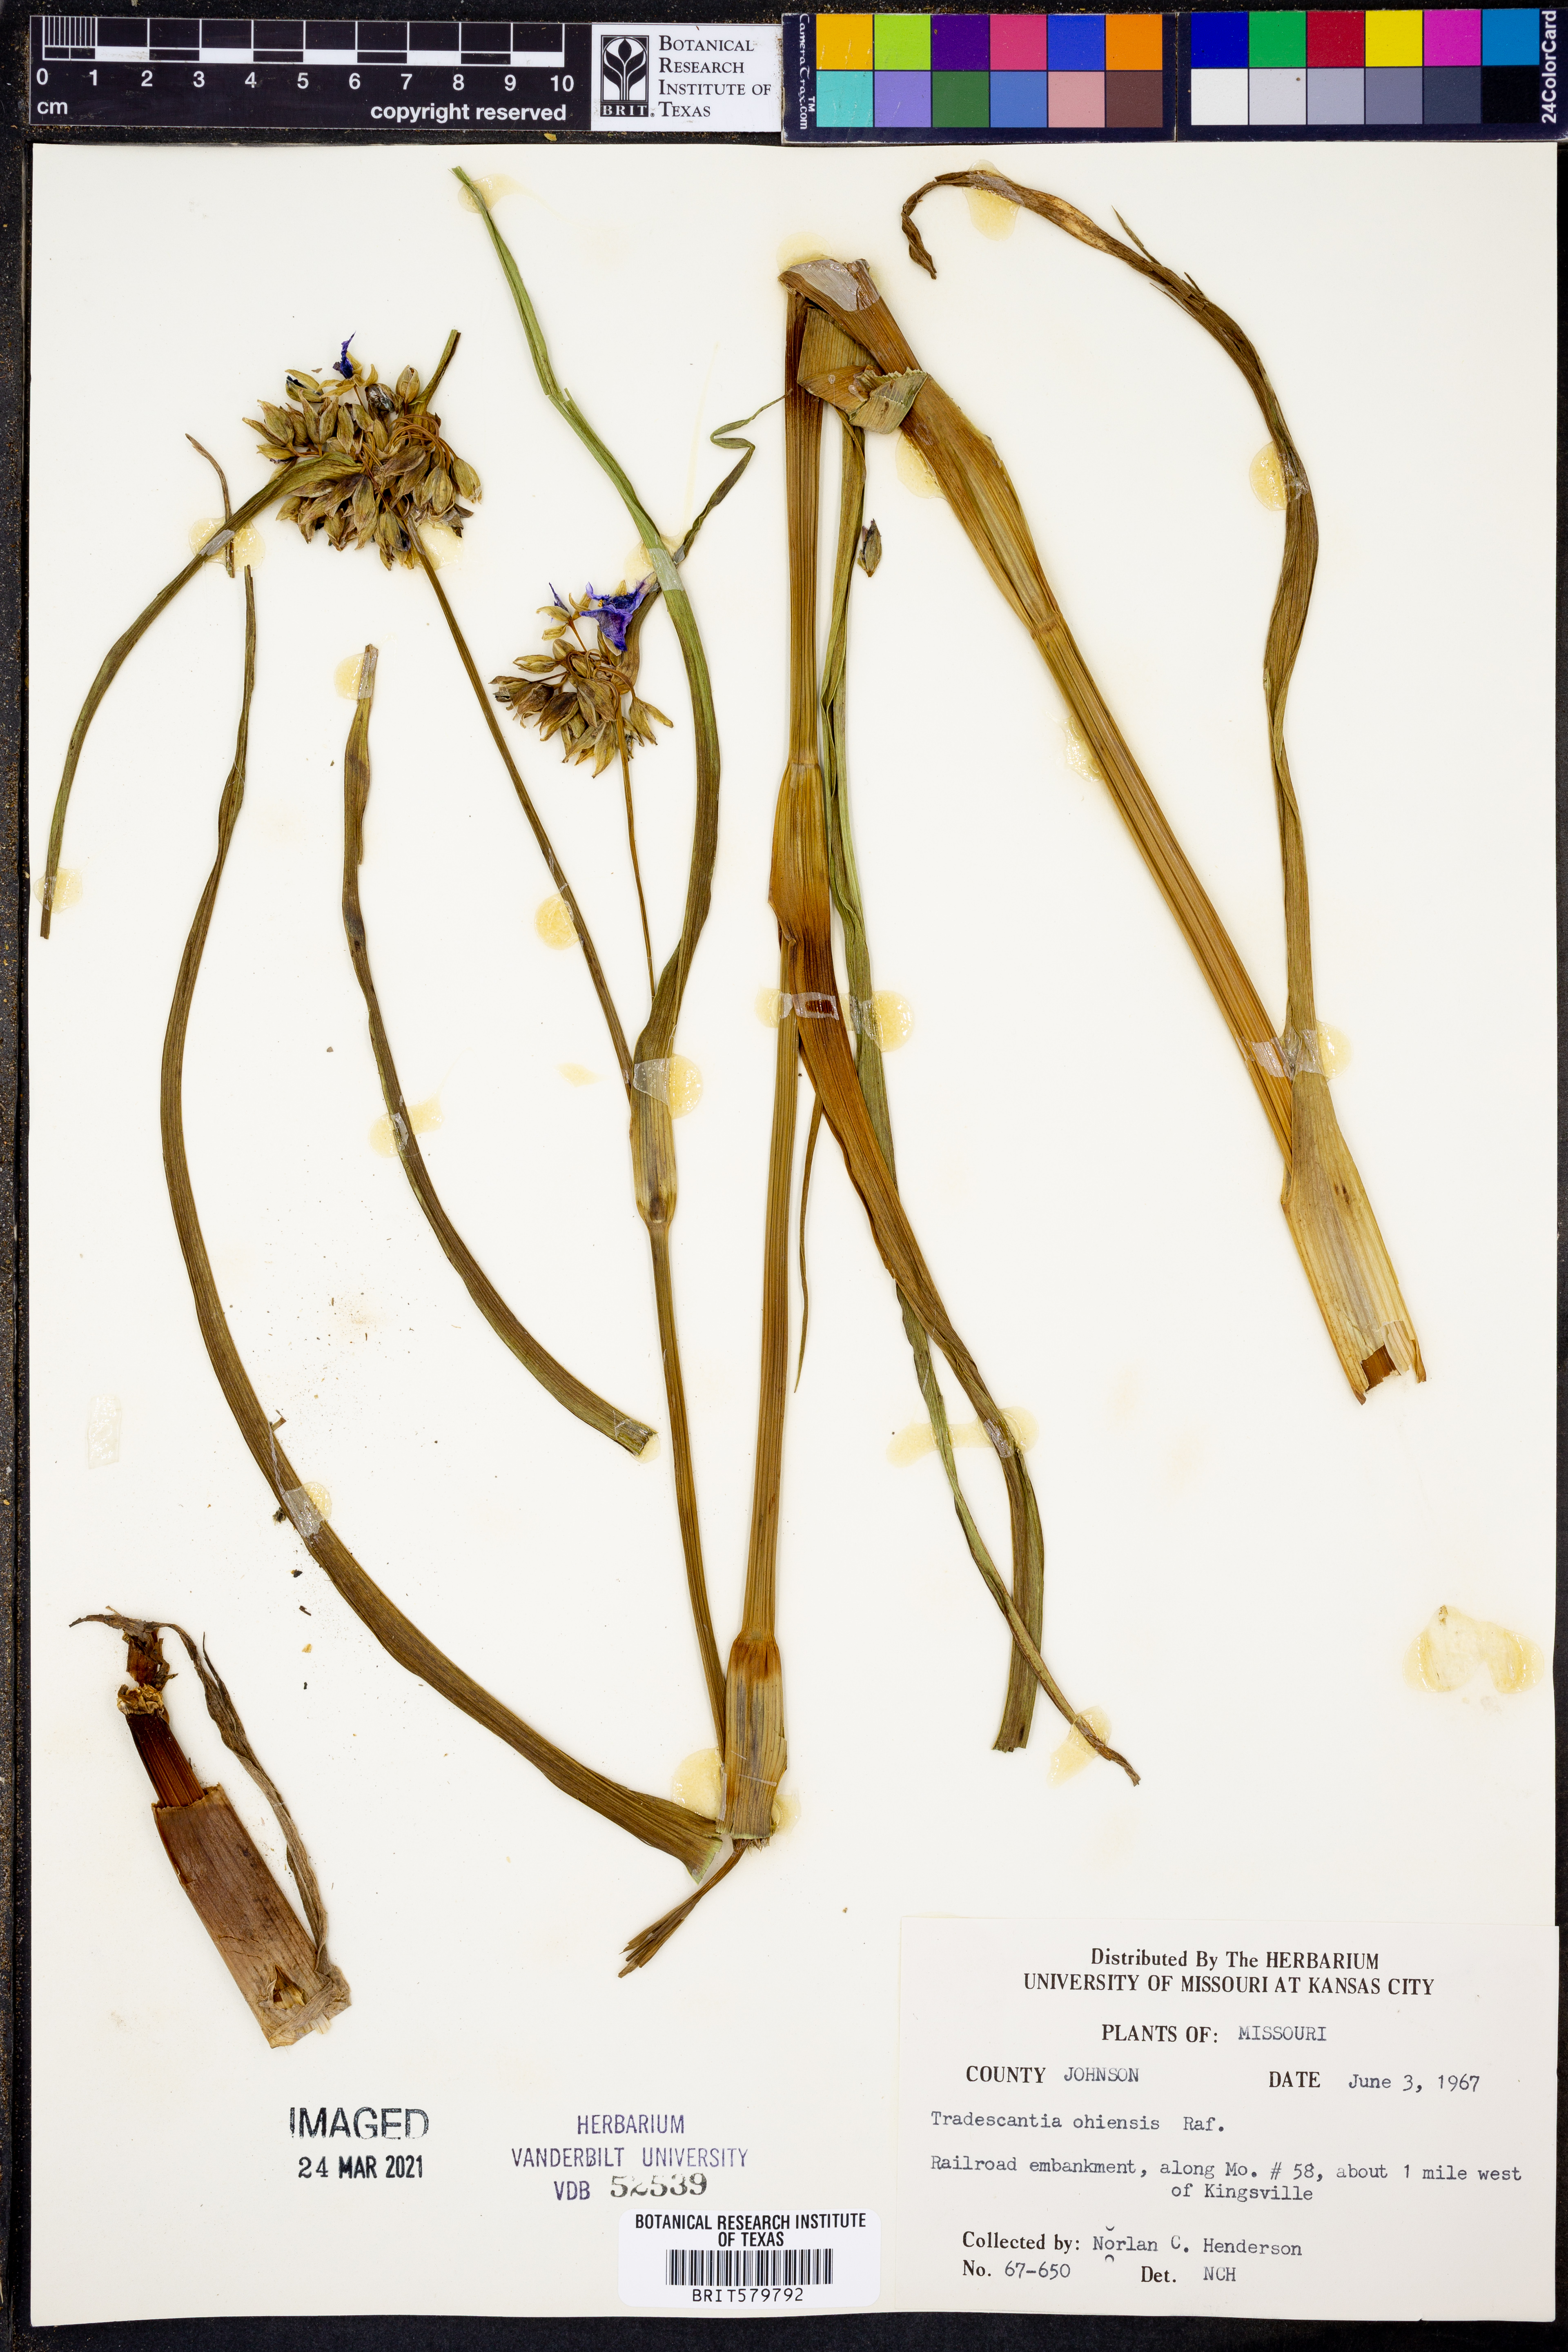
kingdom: Plantae
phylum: Tracheophyta
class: Liliopsida
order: Commelinales
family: Commelinaceae
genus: Tradescantia
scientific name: Tradescantia ohiensis
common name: Ohio spiderwort
